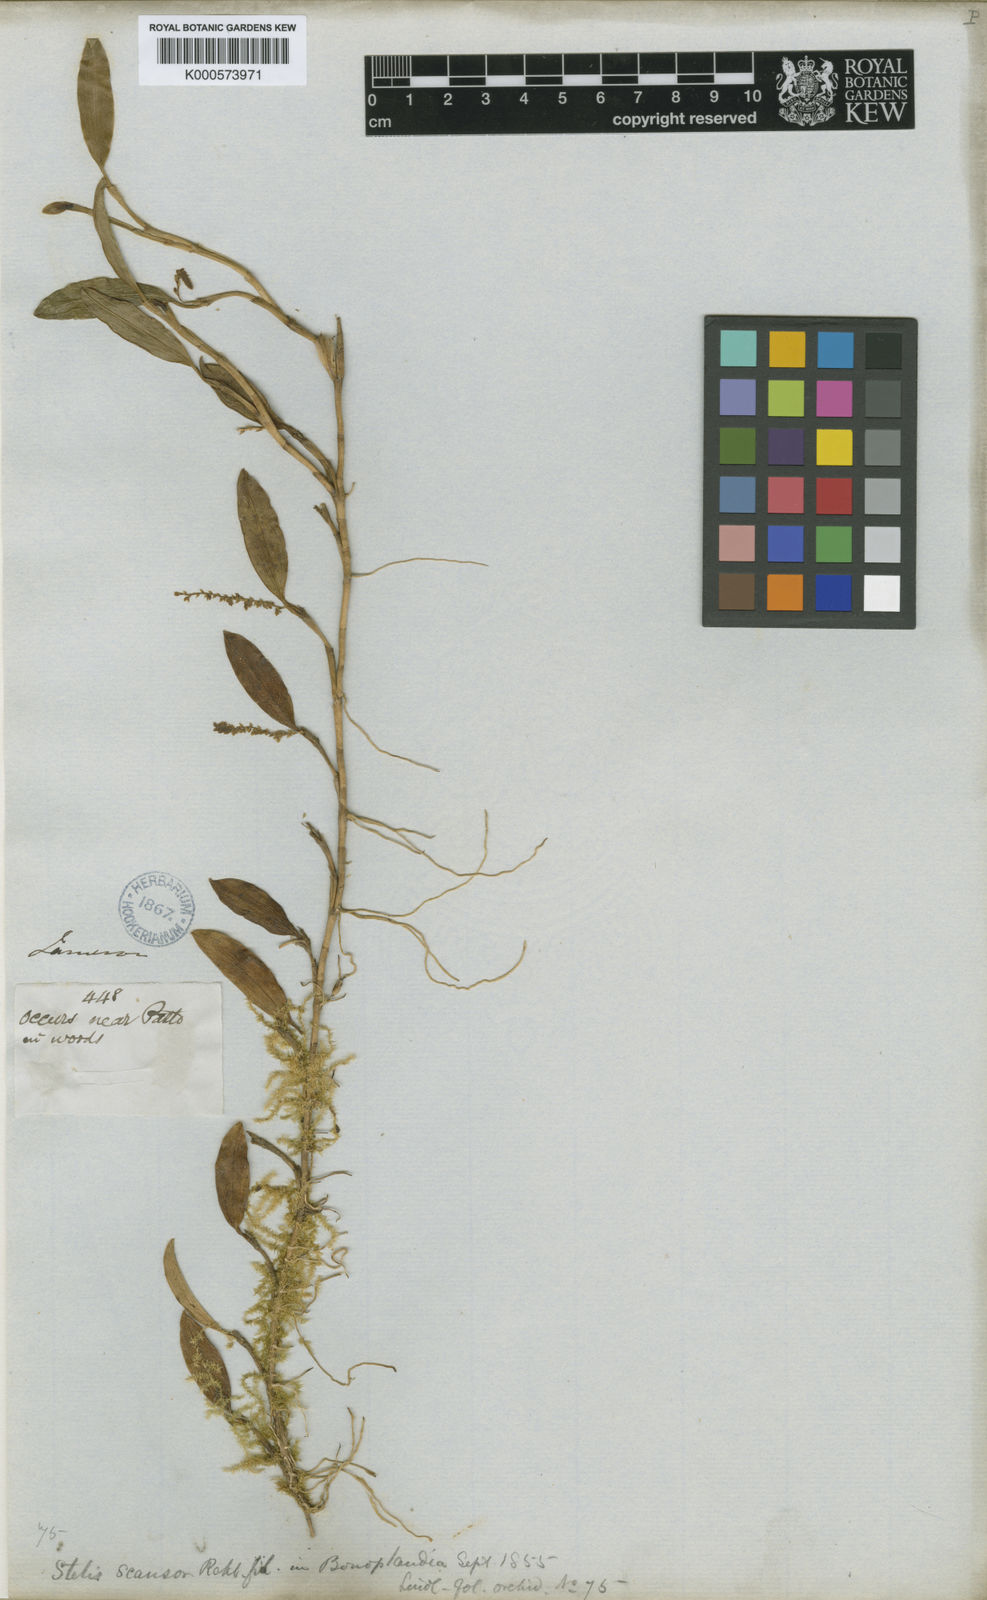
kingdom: Plantae
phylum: Tracheophyta
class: Liliopsida
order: Asparagales
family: Orchidaceae
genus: Stelis
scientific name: Stelis scansor
